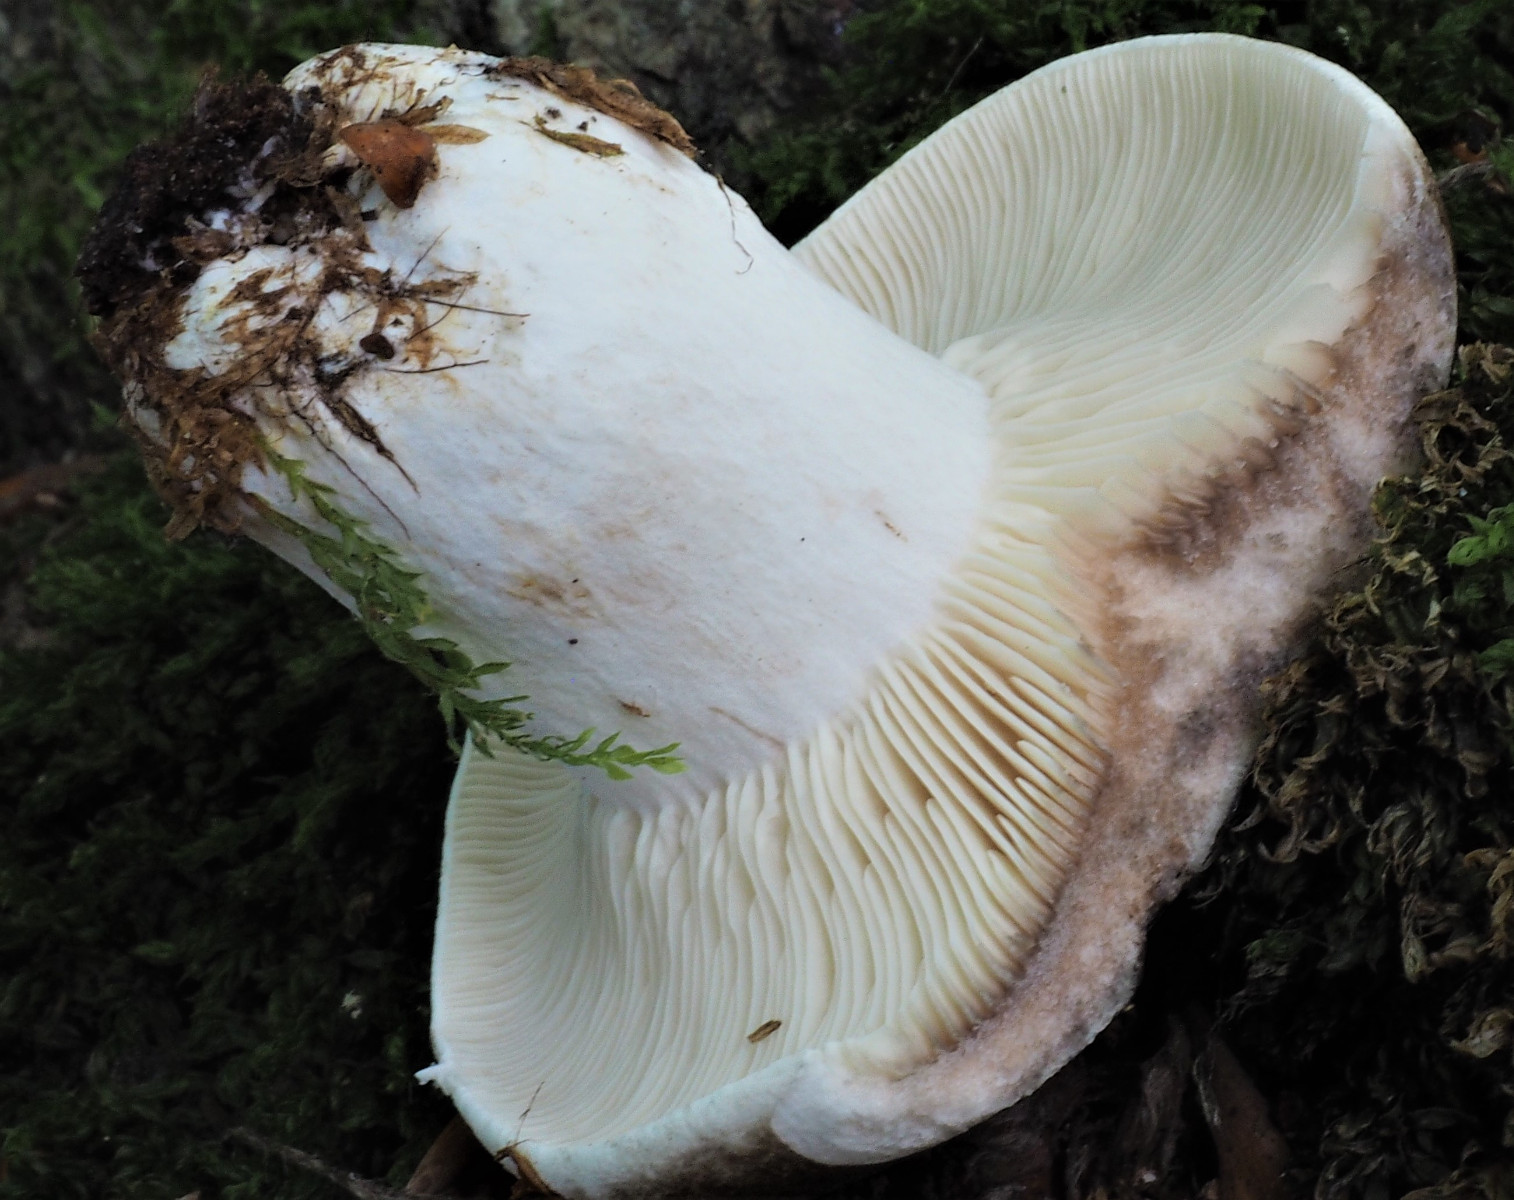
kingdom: Fungi
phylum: Basidiomycota
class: Agaricomycetes
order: Russulales
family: Russulaceae
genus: Russula
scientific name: Russula densifolia
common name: tætbladet skørhat
